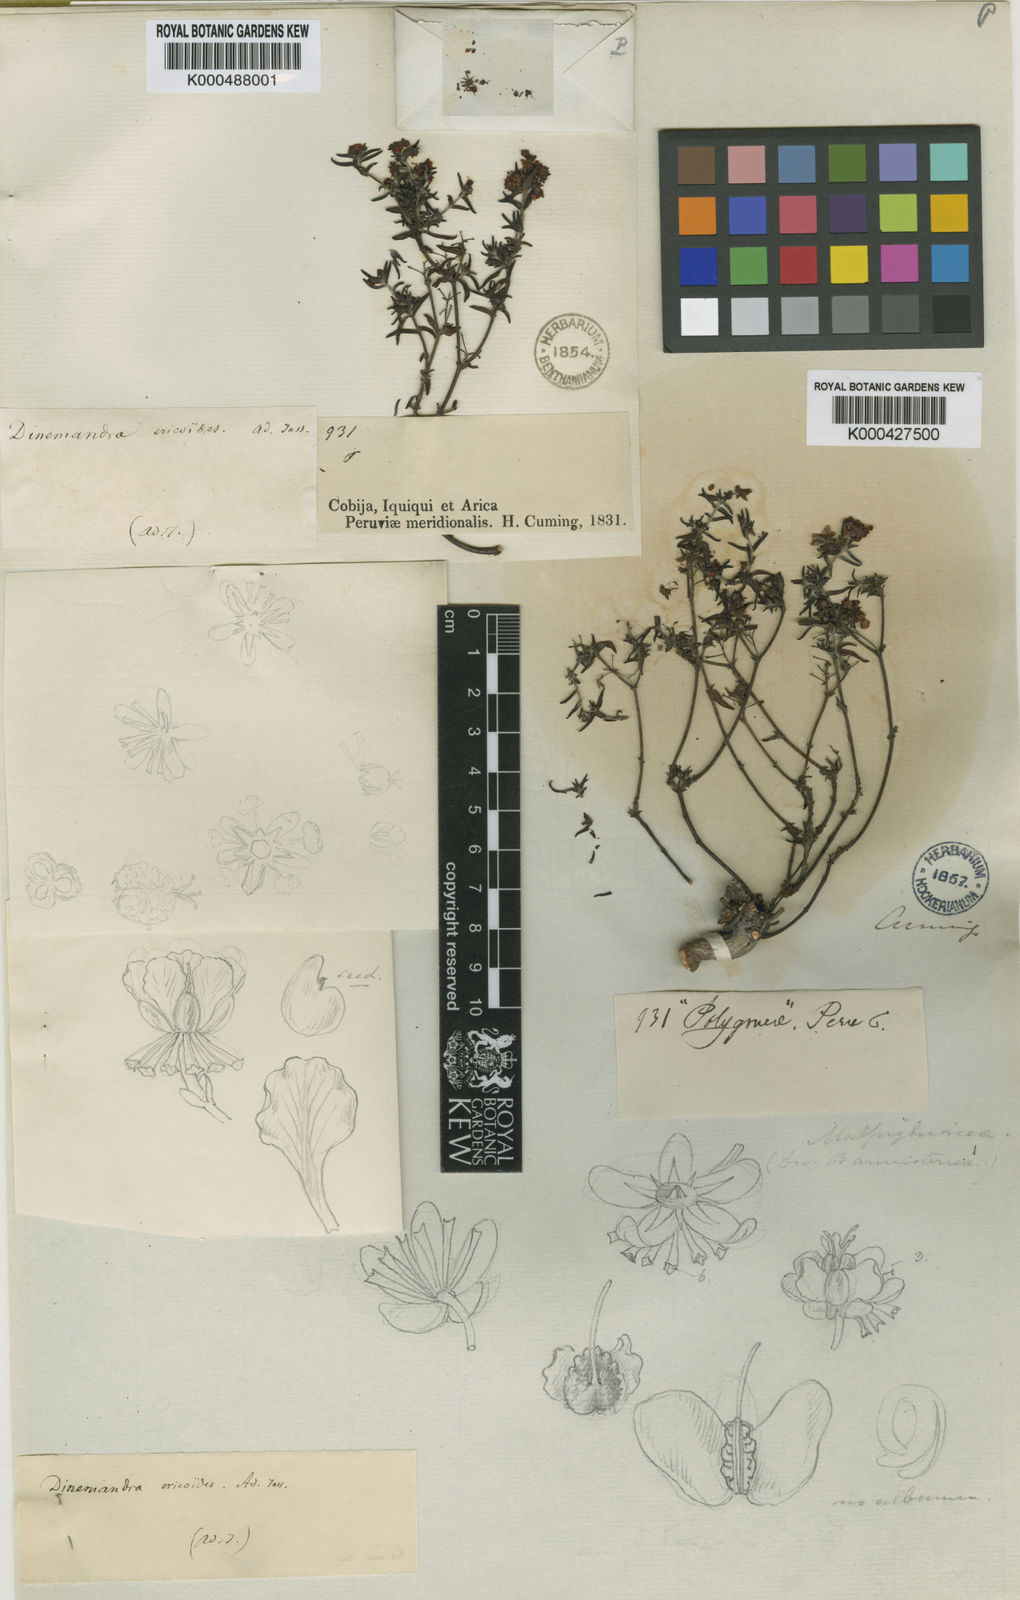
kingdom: Plantae
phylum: Tracheophyta
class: Magnoliopsida
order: Malpighiales
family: Malpighiaceae
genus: Dinemandra
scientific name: Dinemandra ericoides
